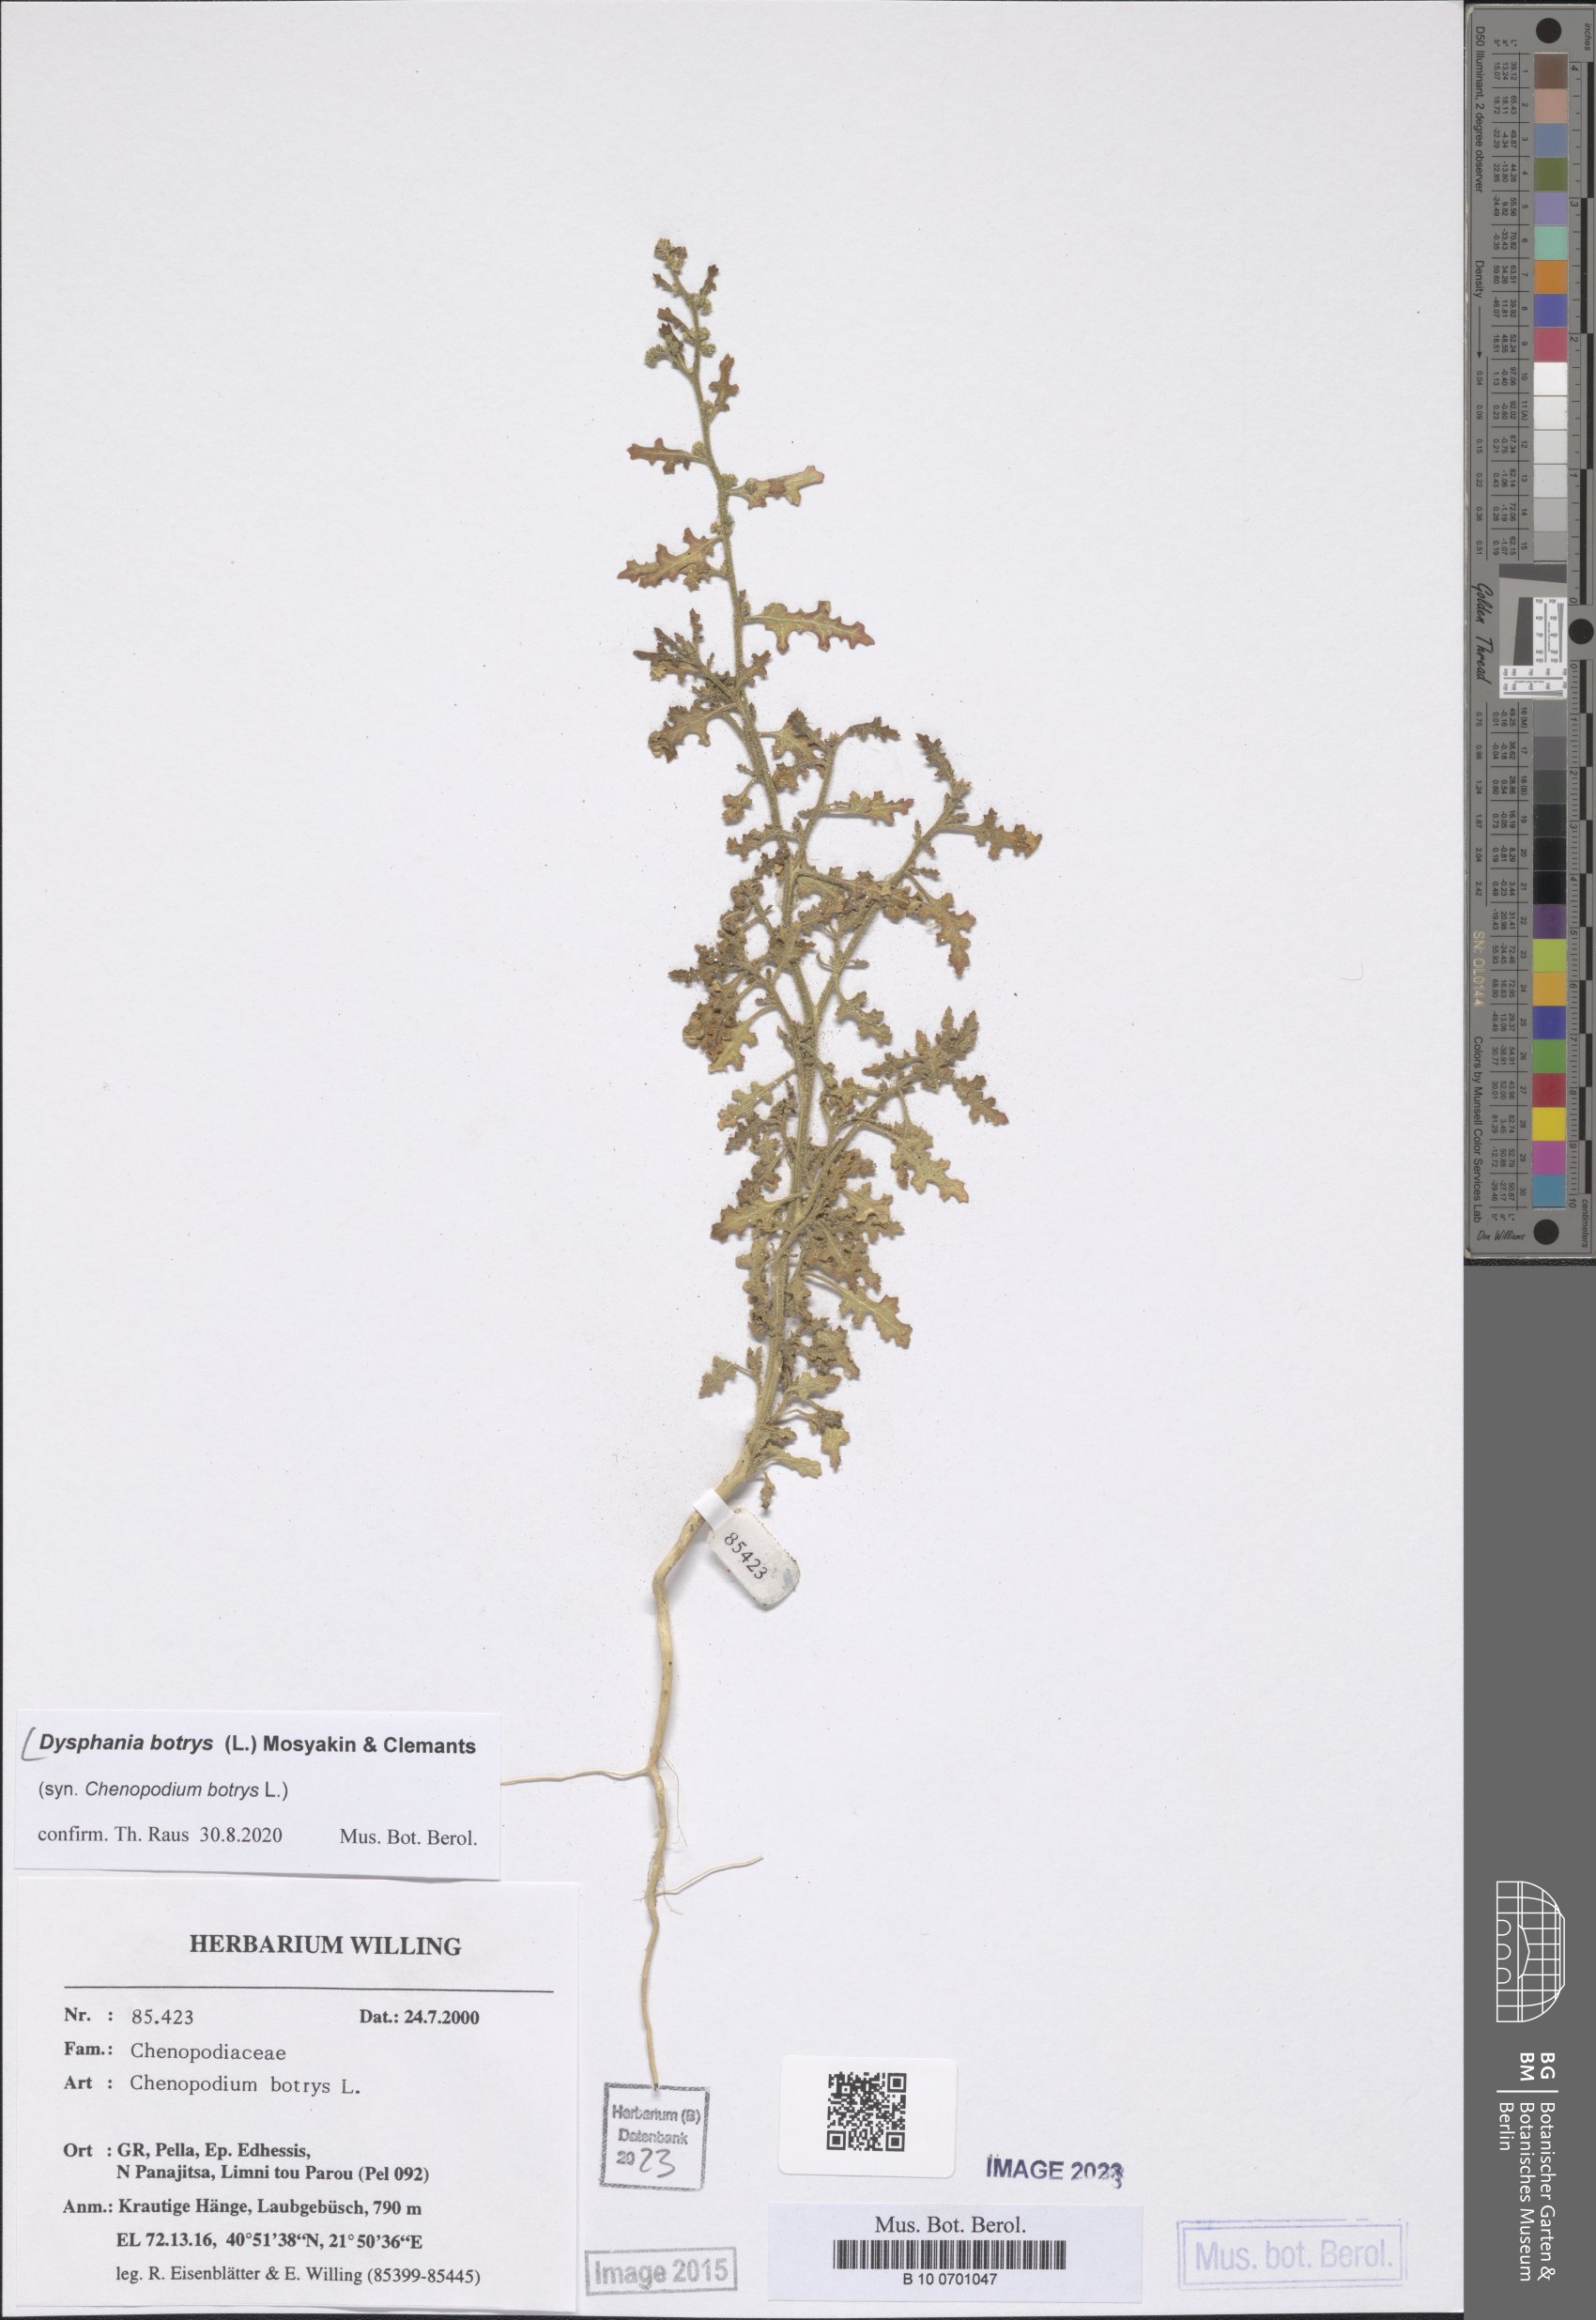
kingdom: Plantae
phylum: Tracheophyta
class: Magnoliopsida
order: Caryophyllales
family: Amaranthaceae
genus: Dysphania
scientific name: Dysphania botrys
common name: Feather-geranium
